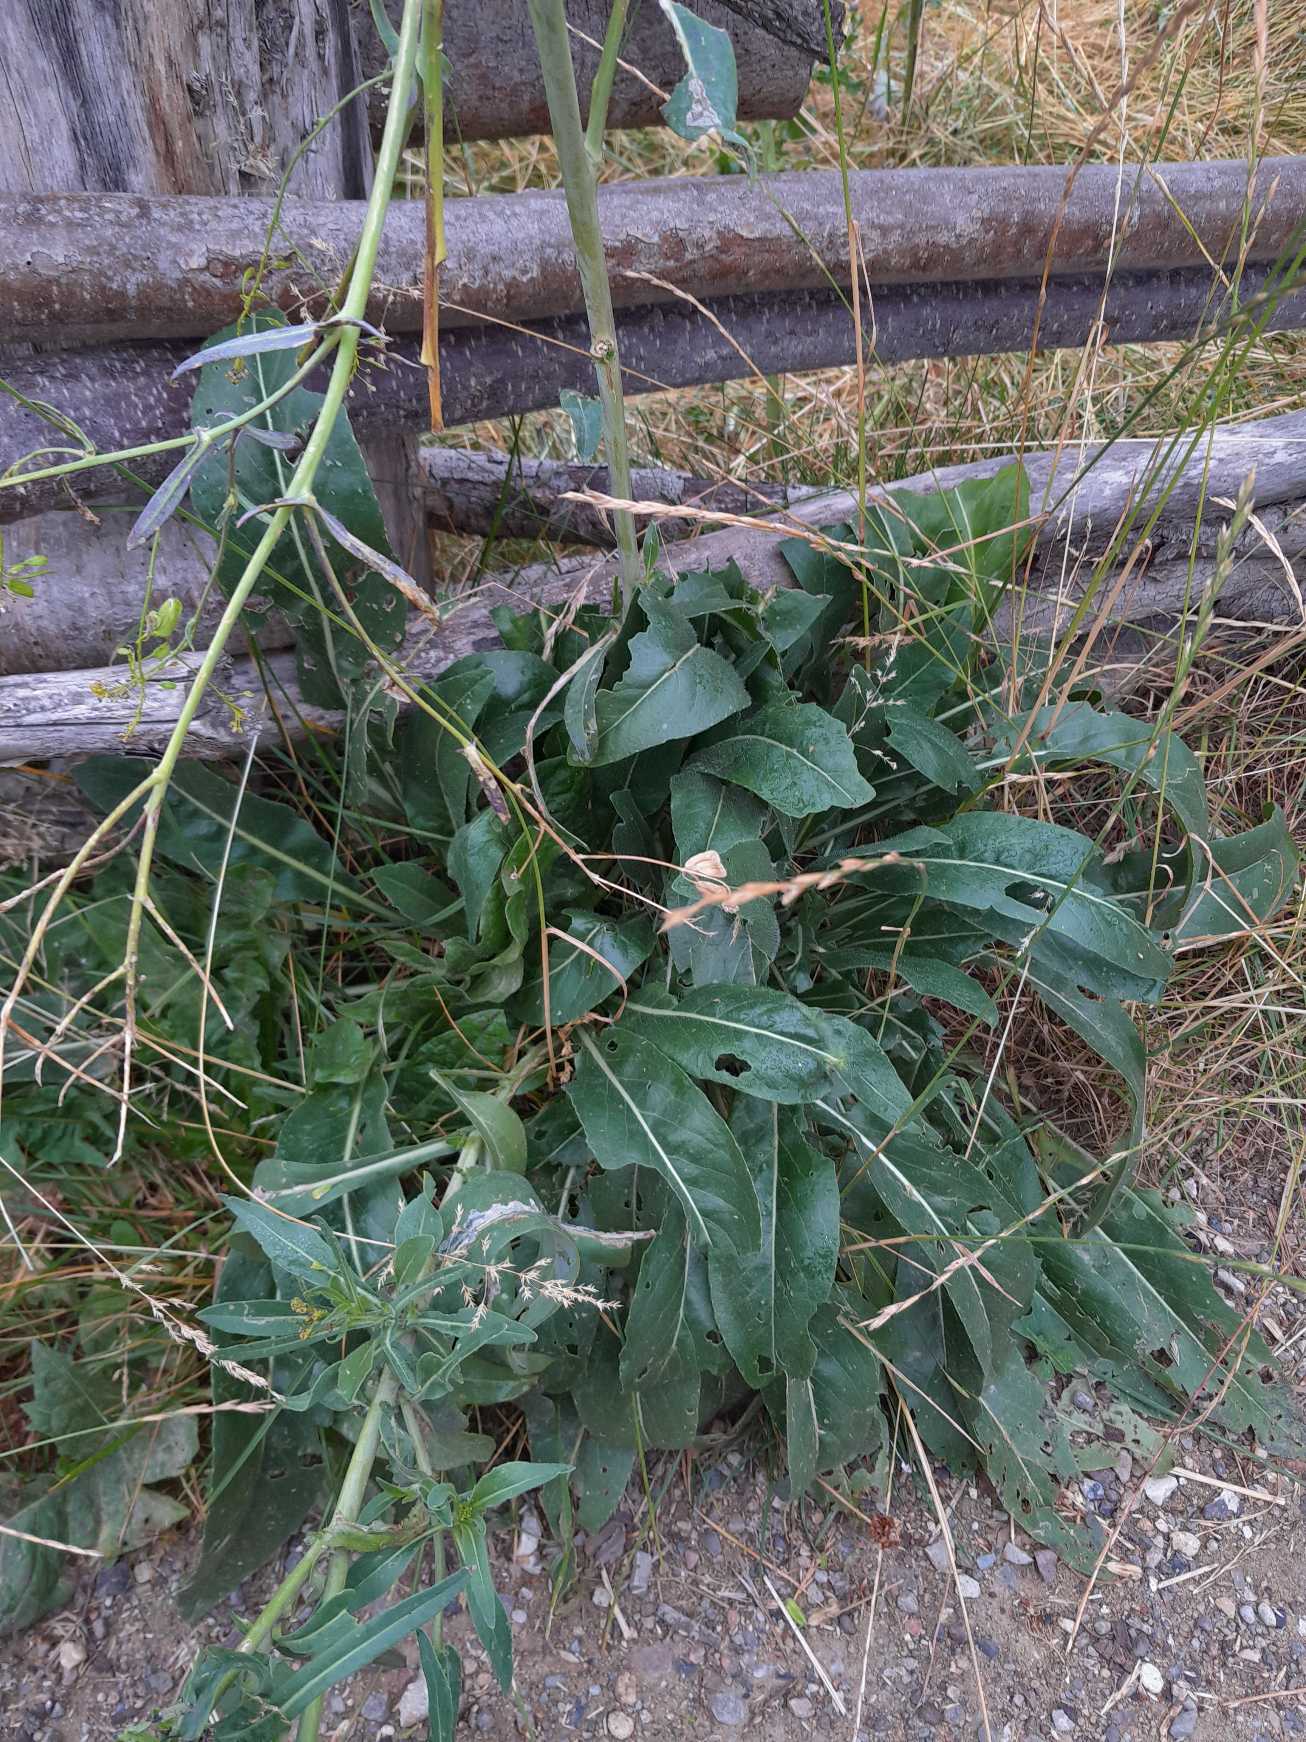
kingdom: Plantae
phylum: Tracheophyta
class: Magnoliopsida
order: Brassicales
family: Brassicaceae
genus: Isatis
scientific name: Isatis tinctoria
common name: Farve-vajd
